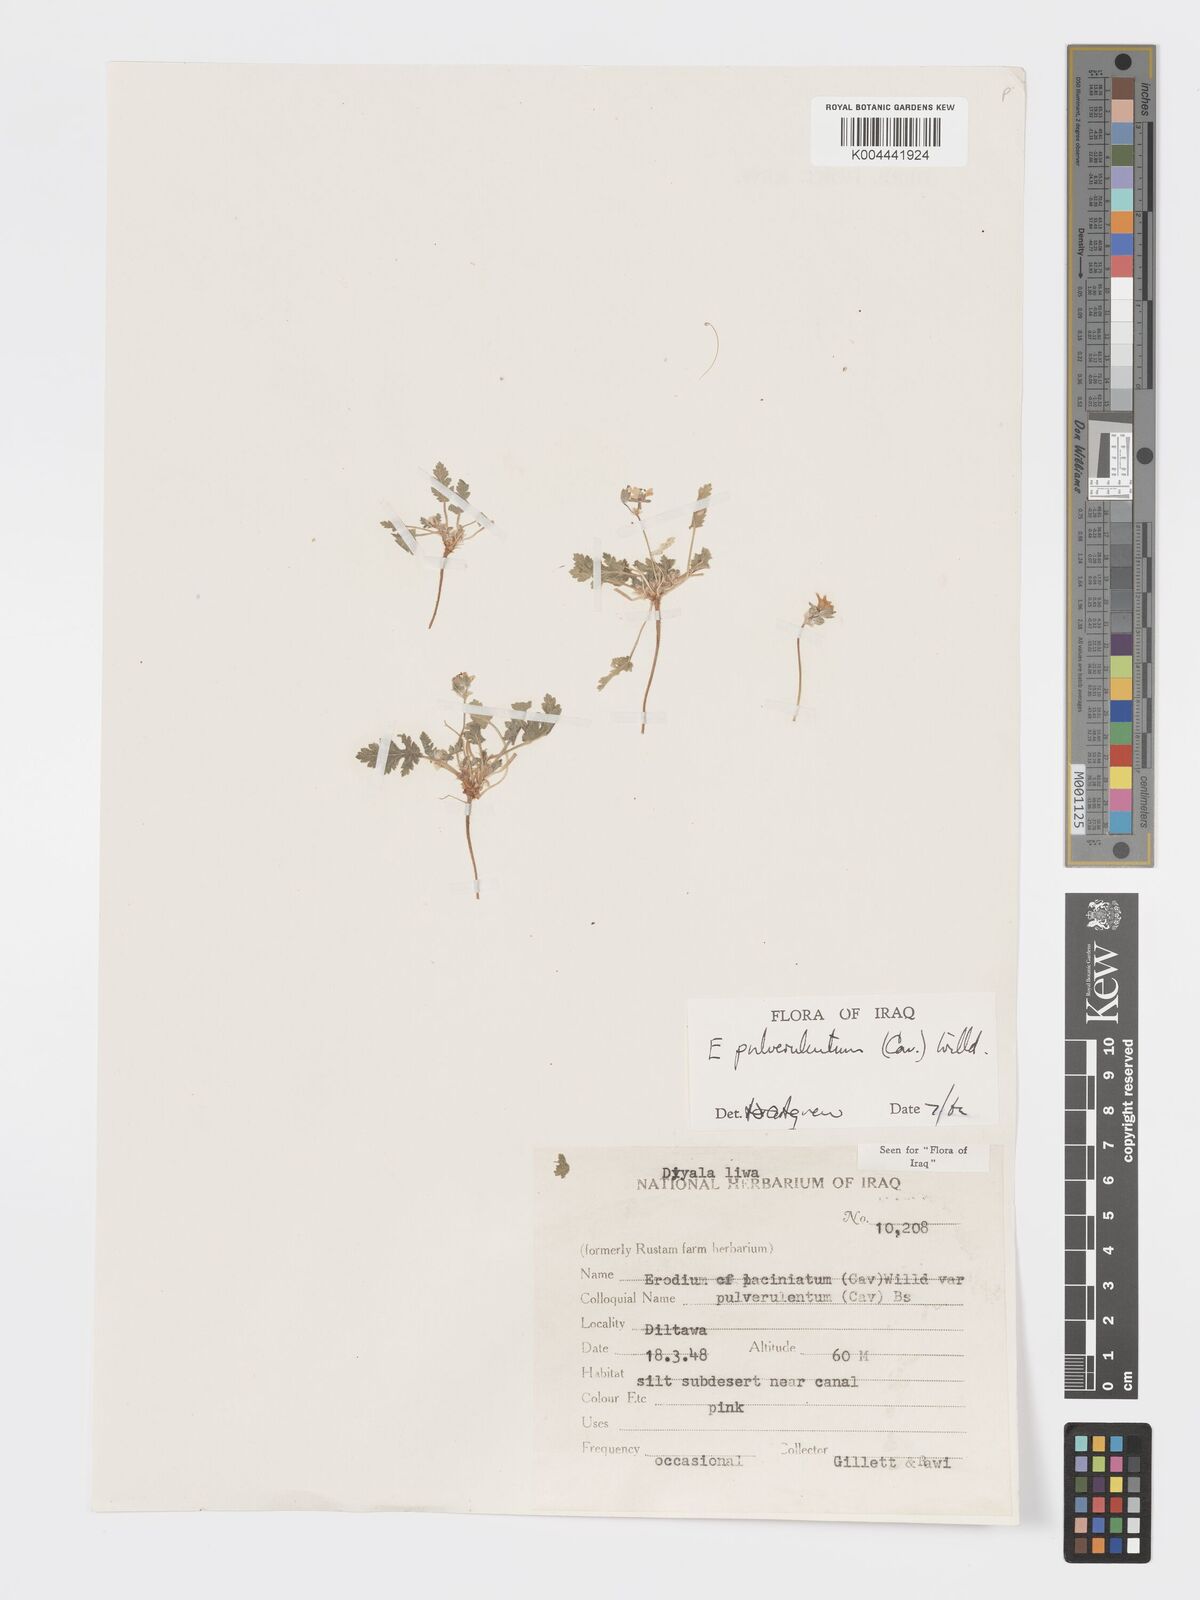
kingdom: Plantae
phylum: Tracheophyta
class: Magnoliopsida
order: Geraniales
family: Geraniaceae
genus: Erodium
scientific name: Erodium laciniatum
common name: Cutleaf stork's bill
